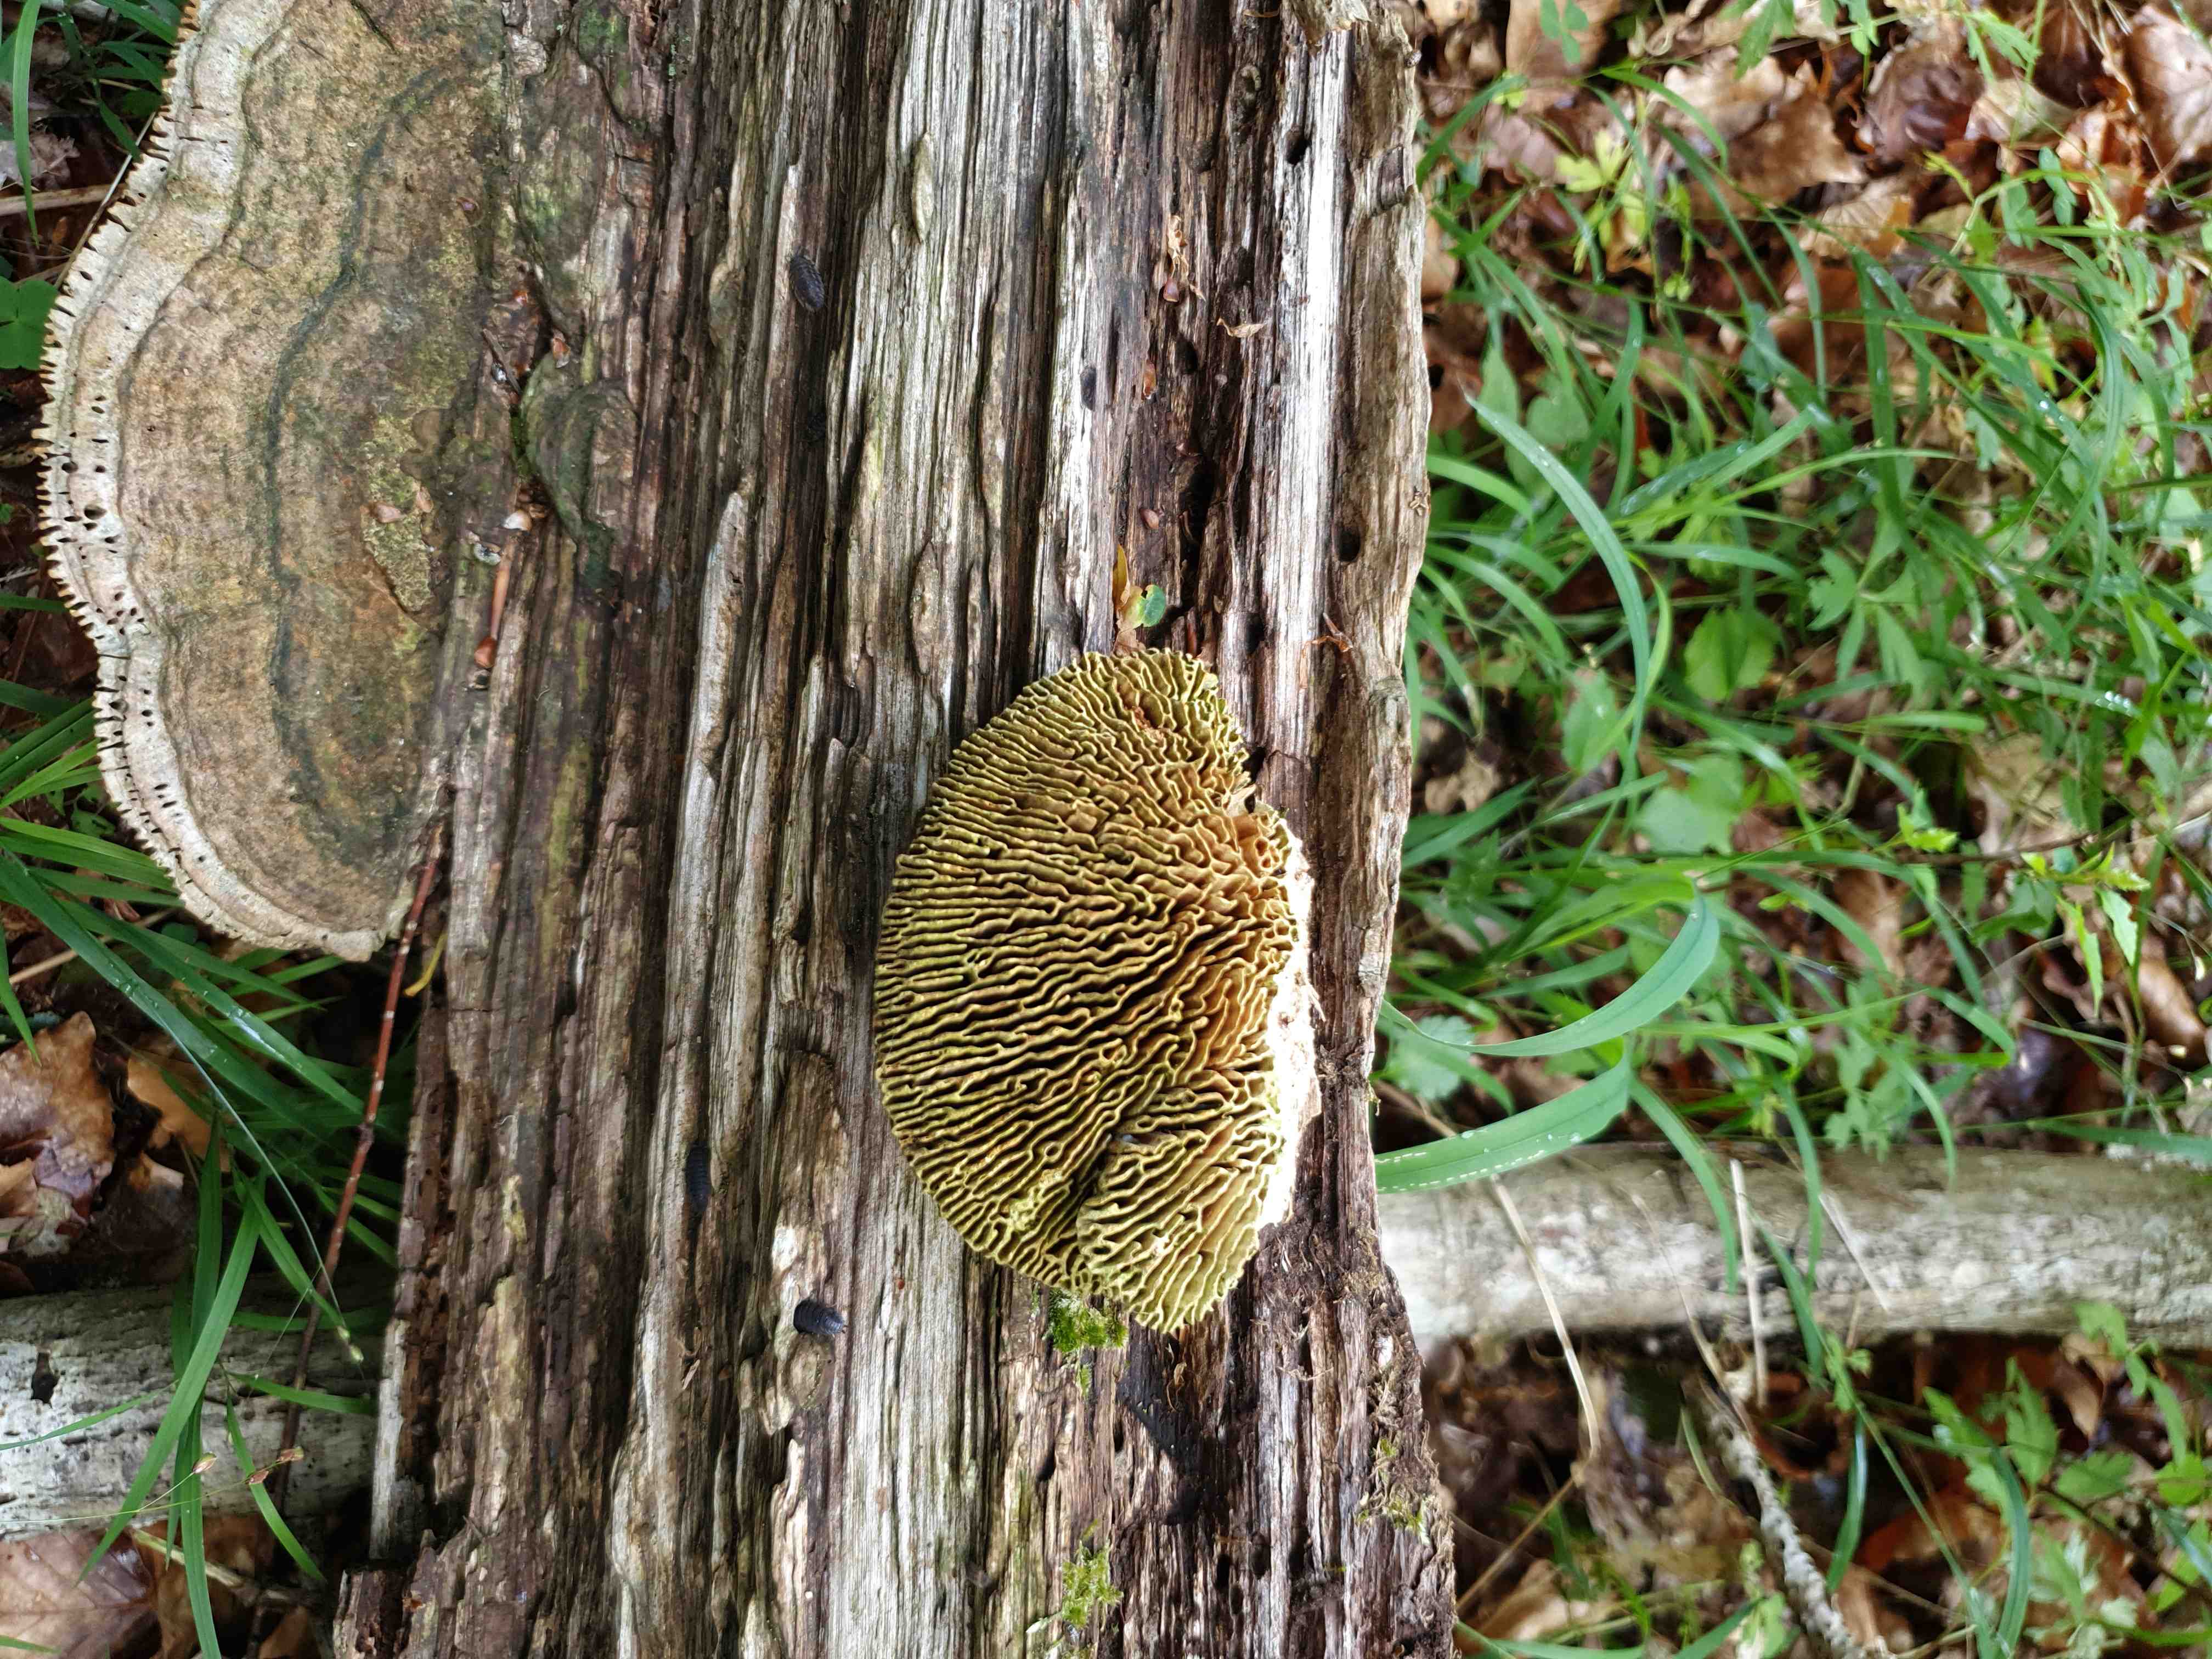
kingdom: Fungi
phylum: Basidiomycota
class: Agaricomycetes
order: Polyporales
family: Fomitopsidaceae
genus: Daedalea
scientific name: Daedalea quercina
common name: ege-labyrintsvamp
